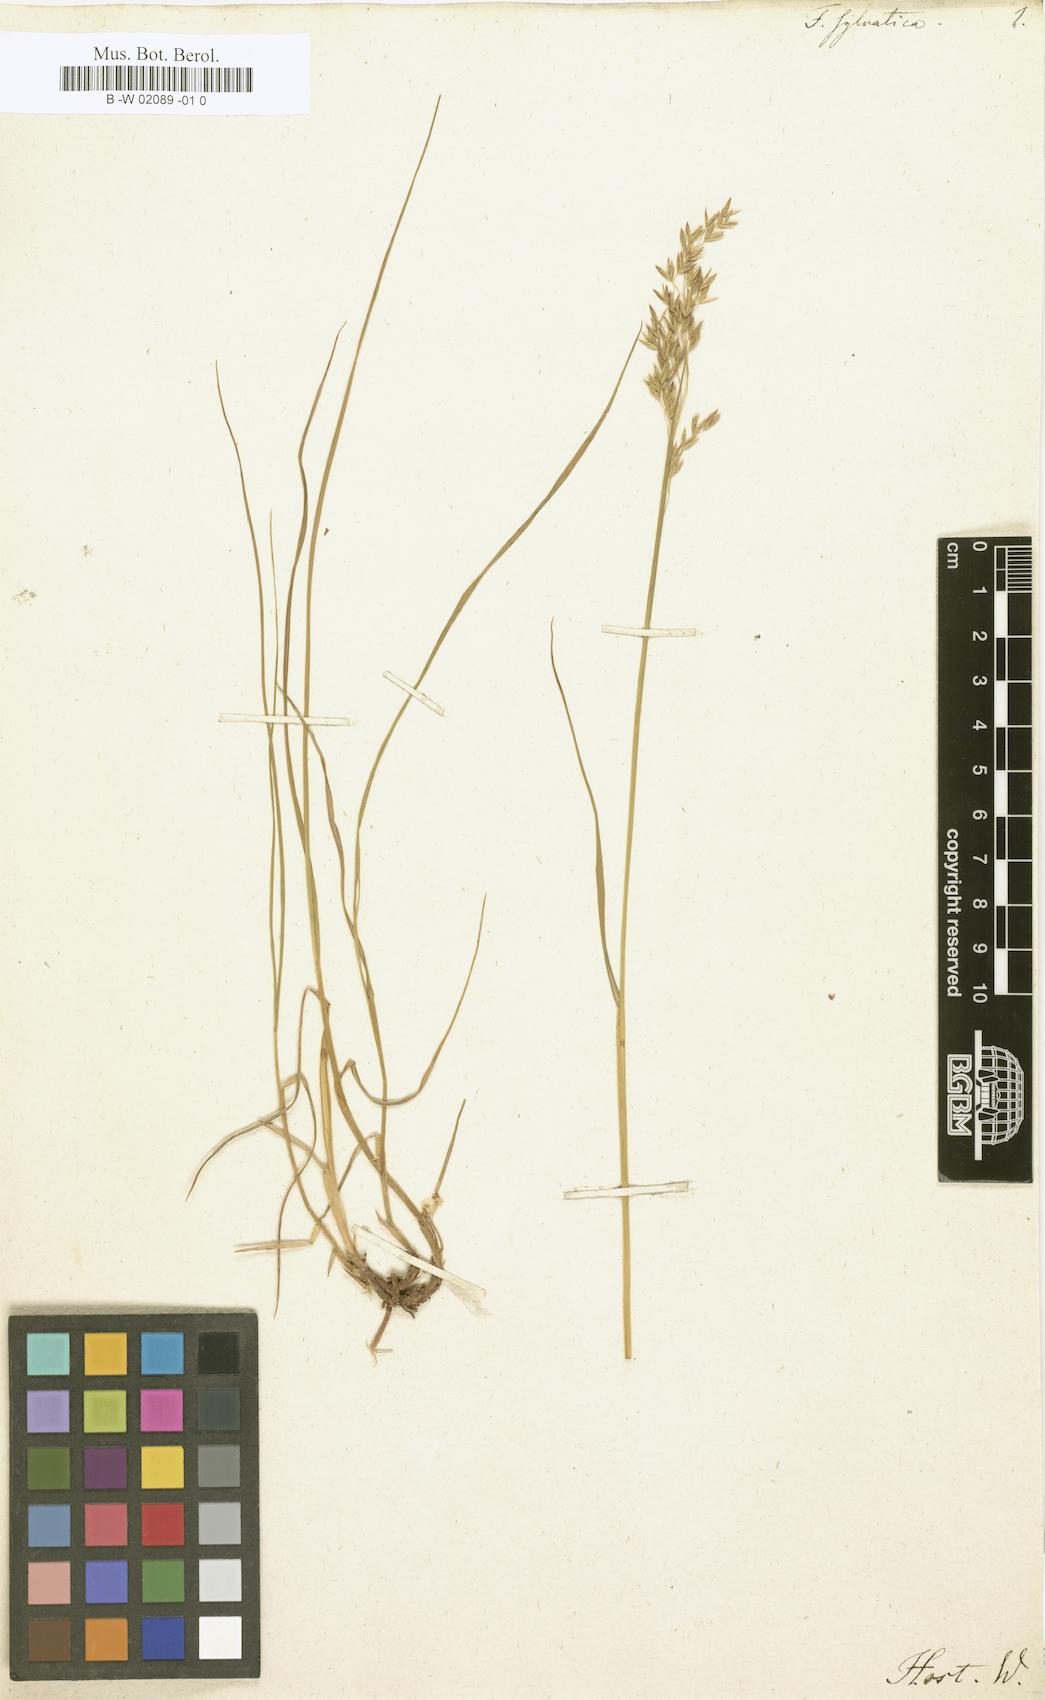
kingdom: Plantae
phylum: Tracheophyta
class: Liliopsida
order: Poales
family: Poaceae
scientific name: Poaceae
